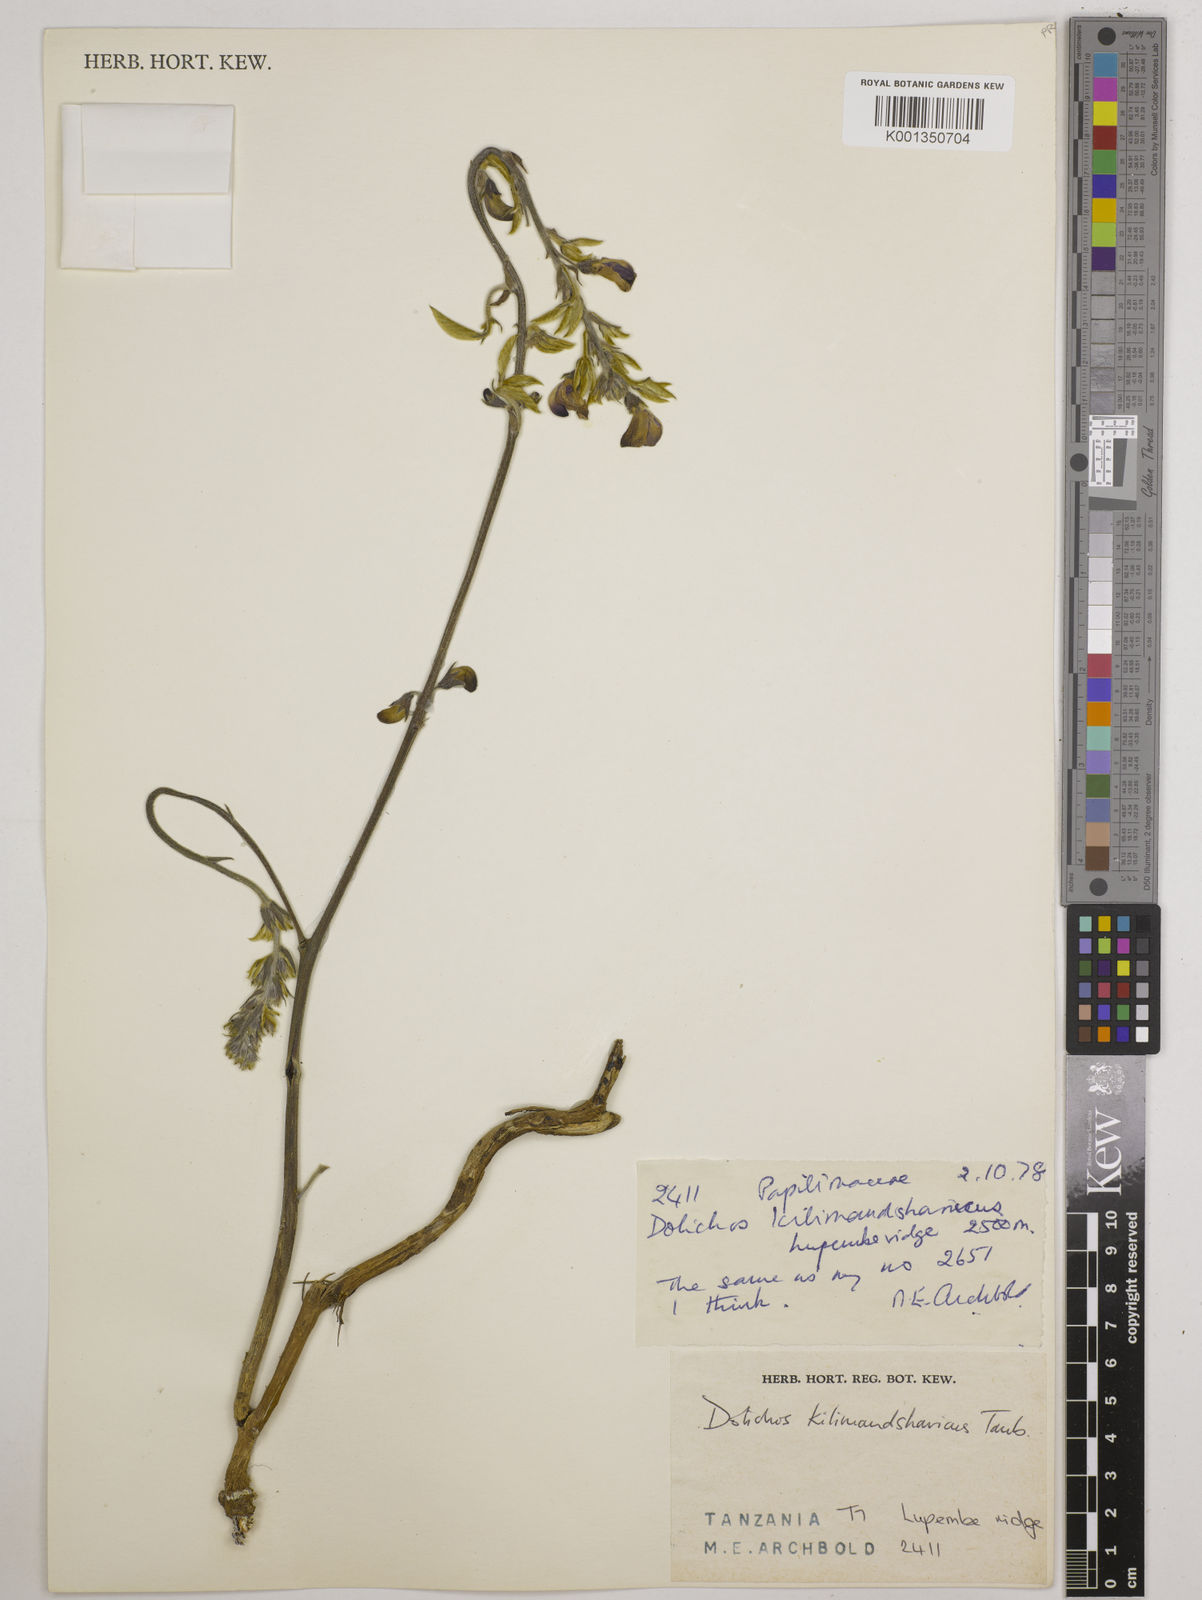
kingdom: Plantae
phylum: Tracheophyta
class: Magnoliopsida
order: Fabales
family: Fabaceae
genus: Dolichos
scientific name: Dolichos kilimandscharicus
